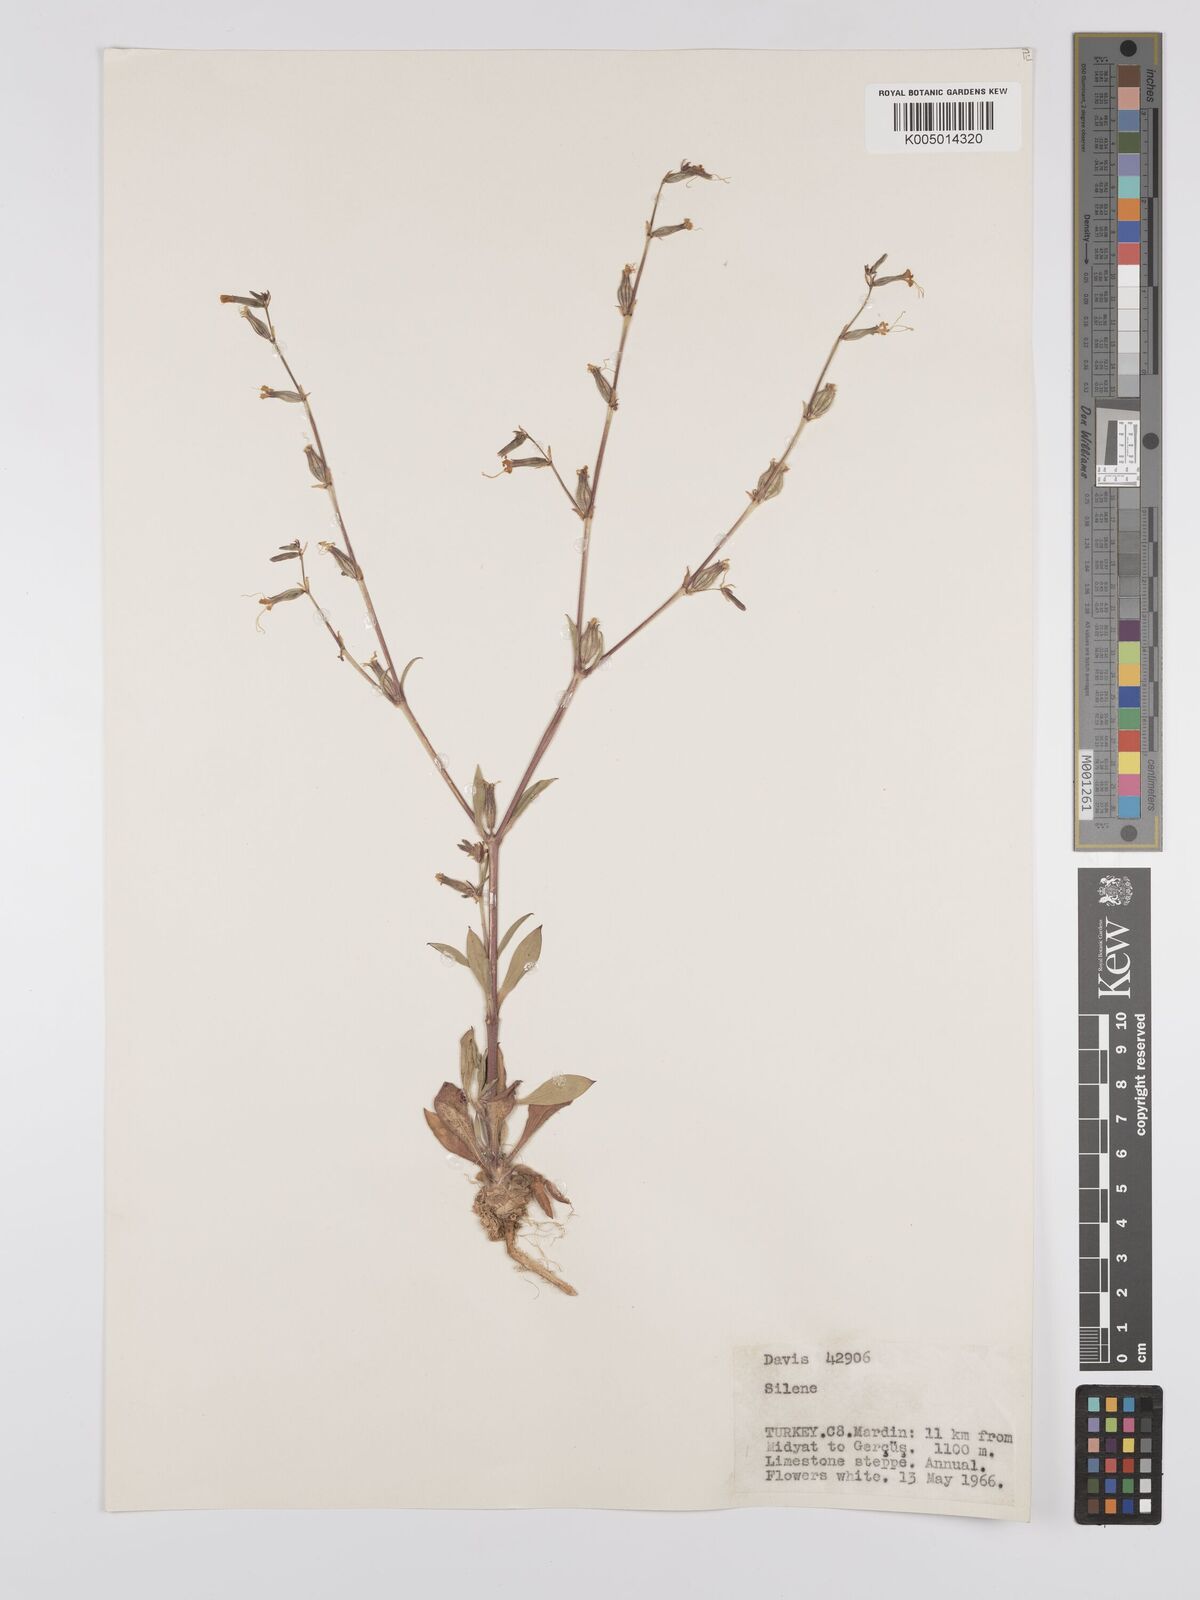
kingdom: Plantae
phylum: Tracheophyta
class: Magnoliopsida
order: Caryophyllales
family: Caryophyllaceae
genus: Silene
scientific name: Silene
